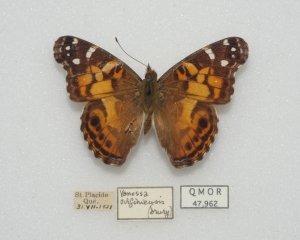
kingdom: Animalia
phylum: Arthropoda
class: Insecta
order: Lepidoptera
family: Nymphalidae
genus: Vanessa
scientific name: Vanessa virginiensis
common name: American Lady
